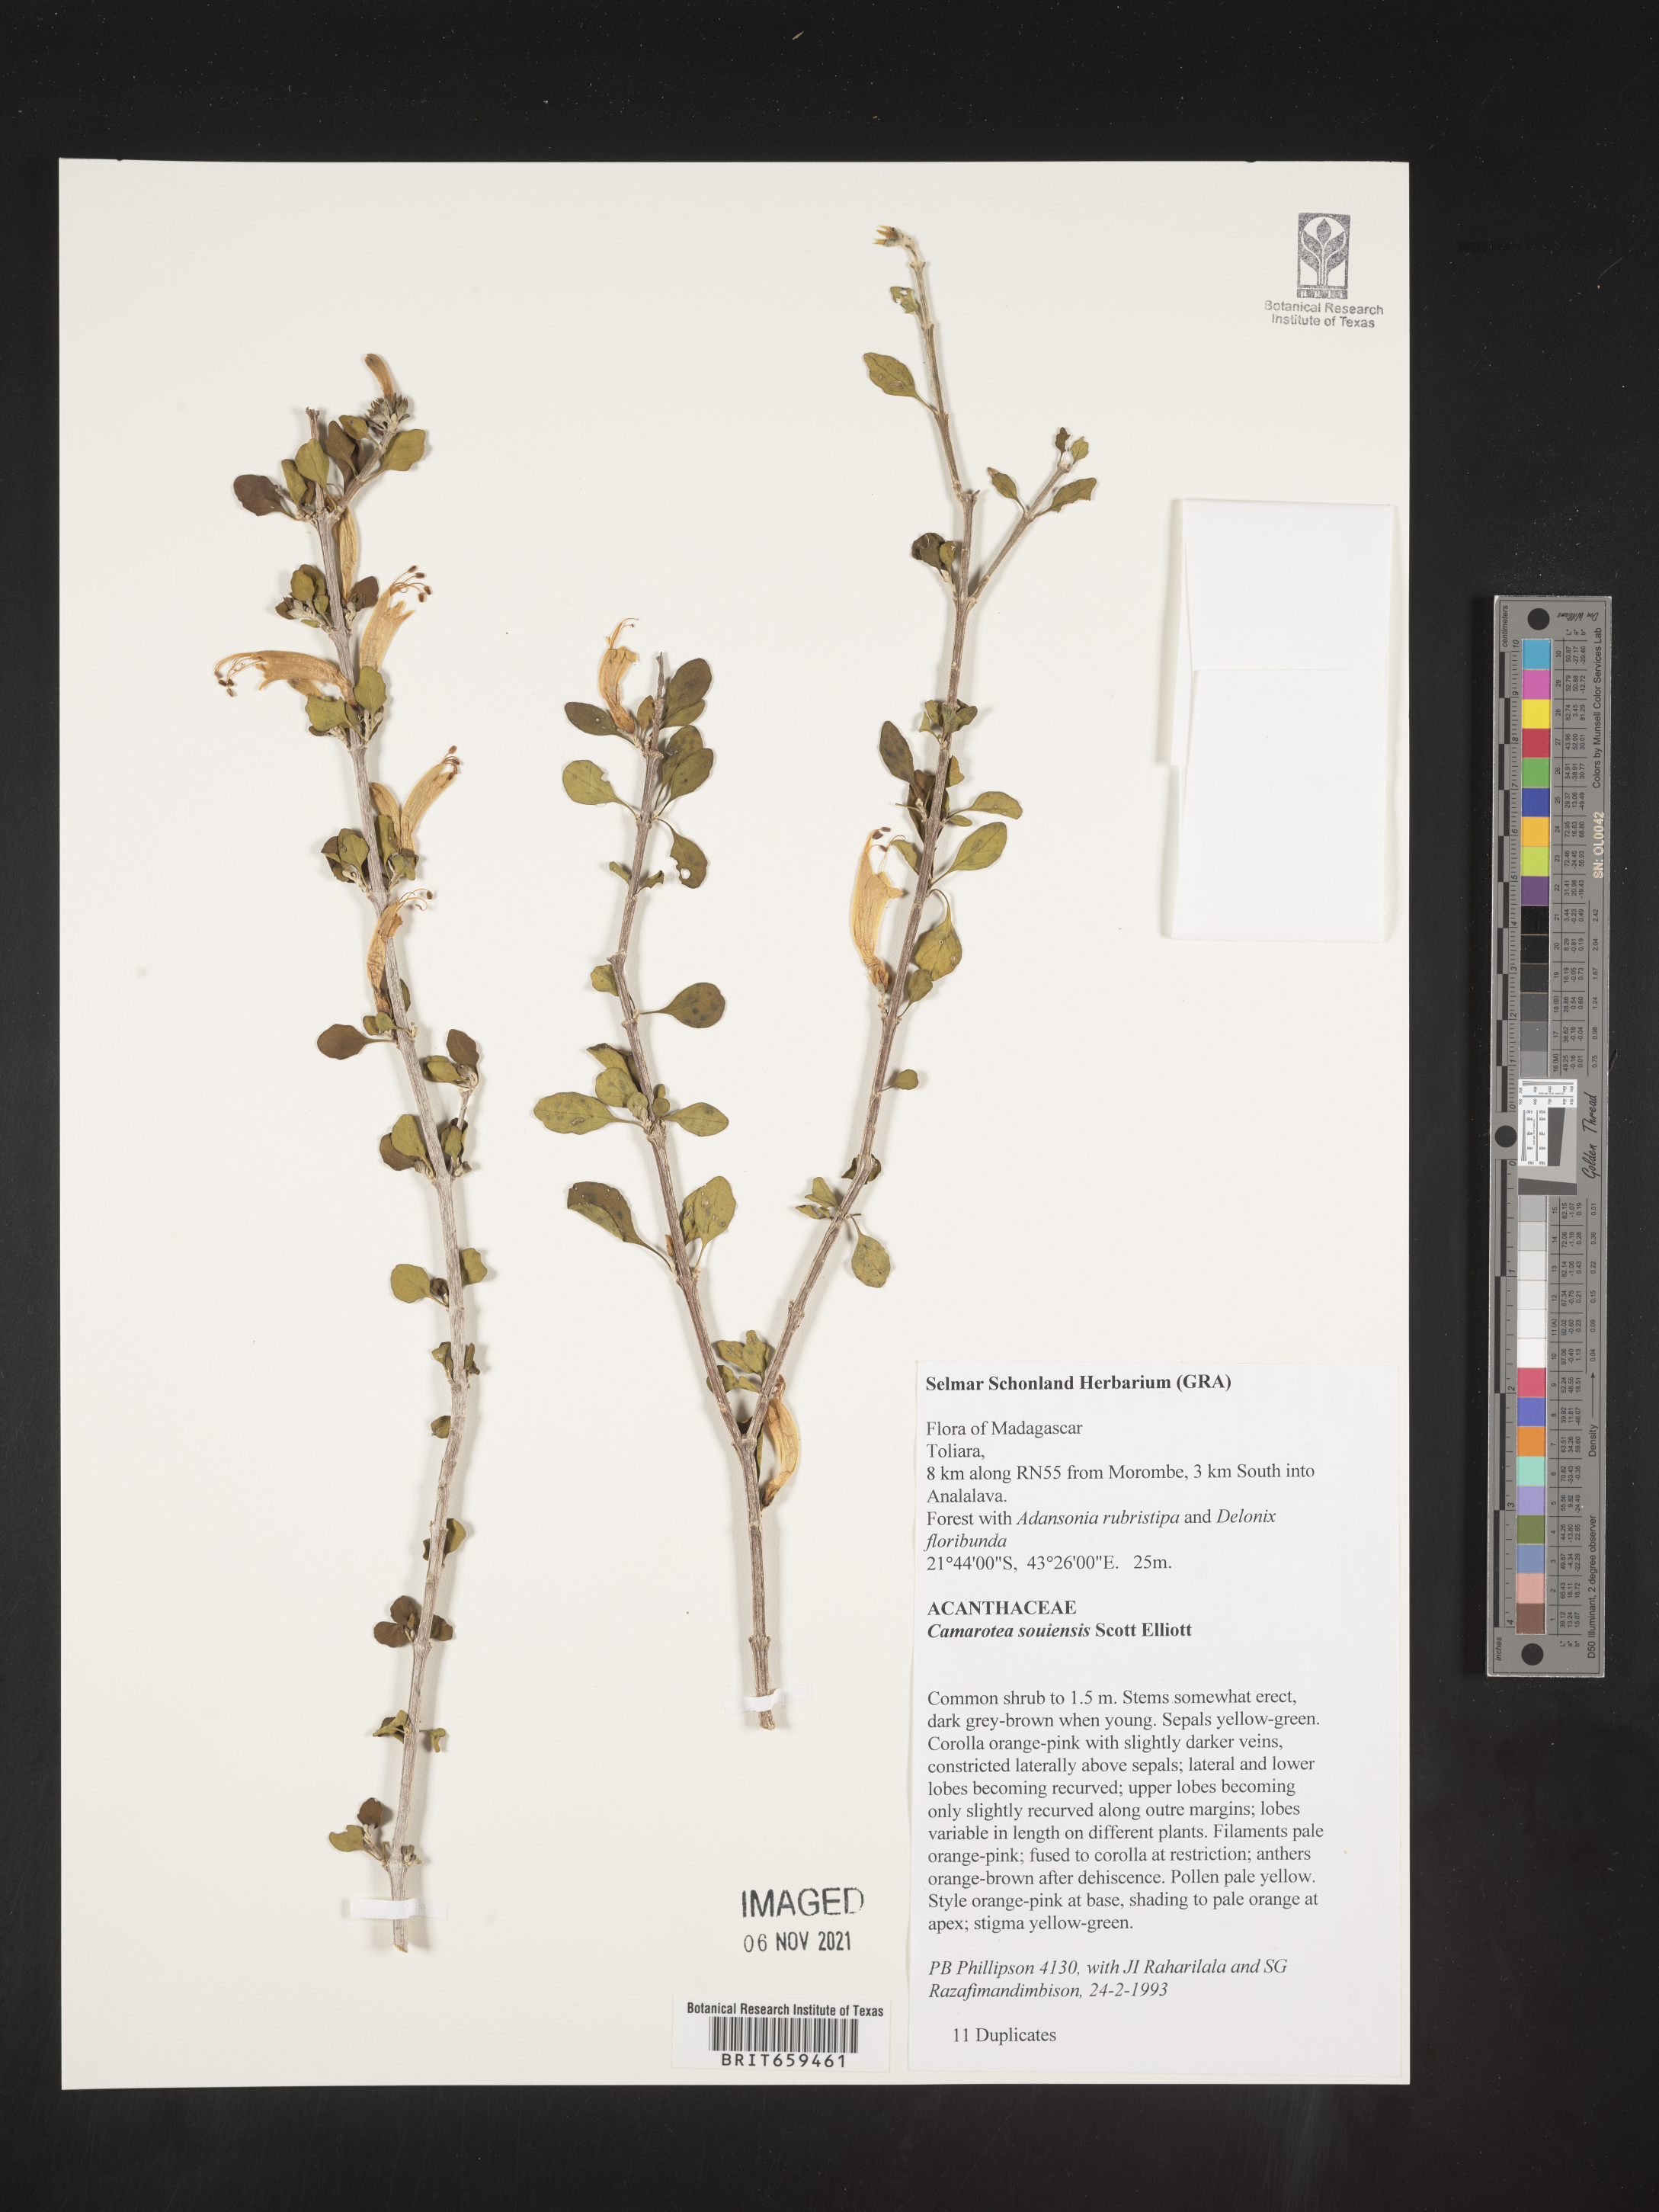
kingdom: Plantae
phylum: Tracheophyta
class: Magnoliopsida
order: Lamiales
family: Acanthaceae
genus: Camarotea
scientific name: Camarotea souiensis
